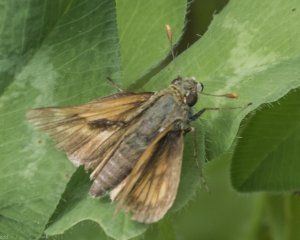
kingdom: Animalia
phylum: Arthropoda
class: Insecta
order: Lepidoptera
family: Hesperiidae
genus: Polites
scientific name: Polites
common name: Long Dash Skipper
